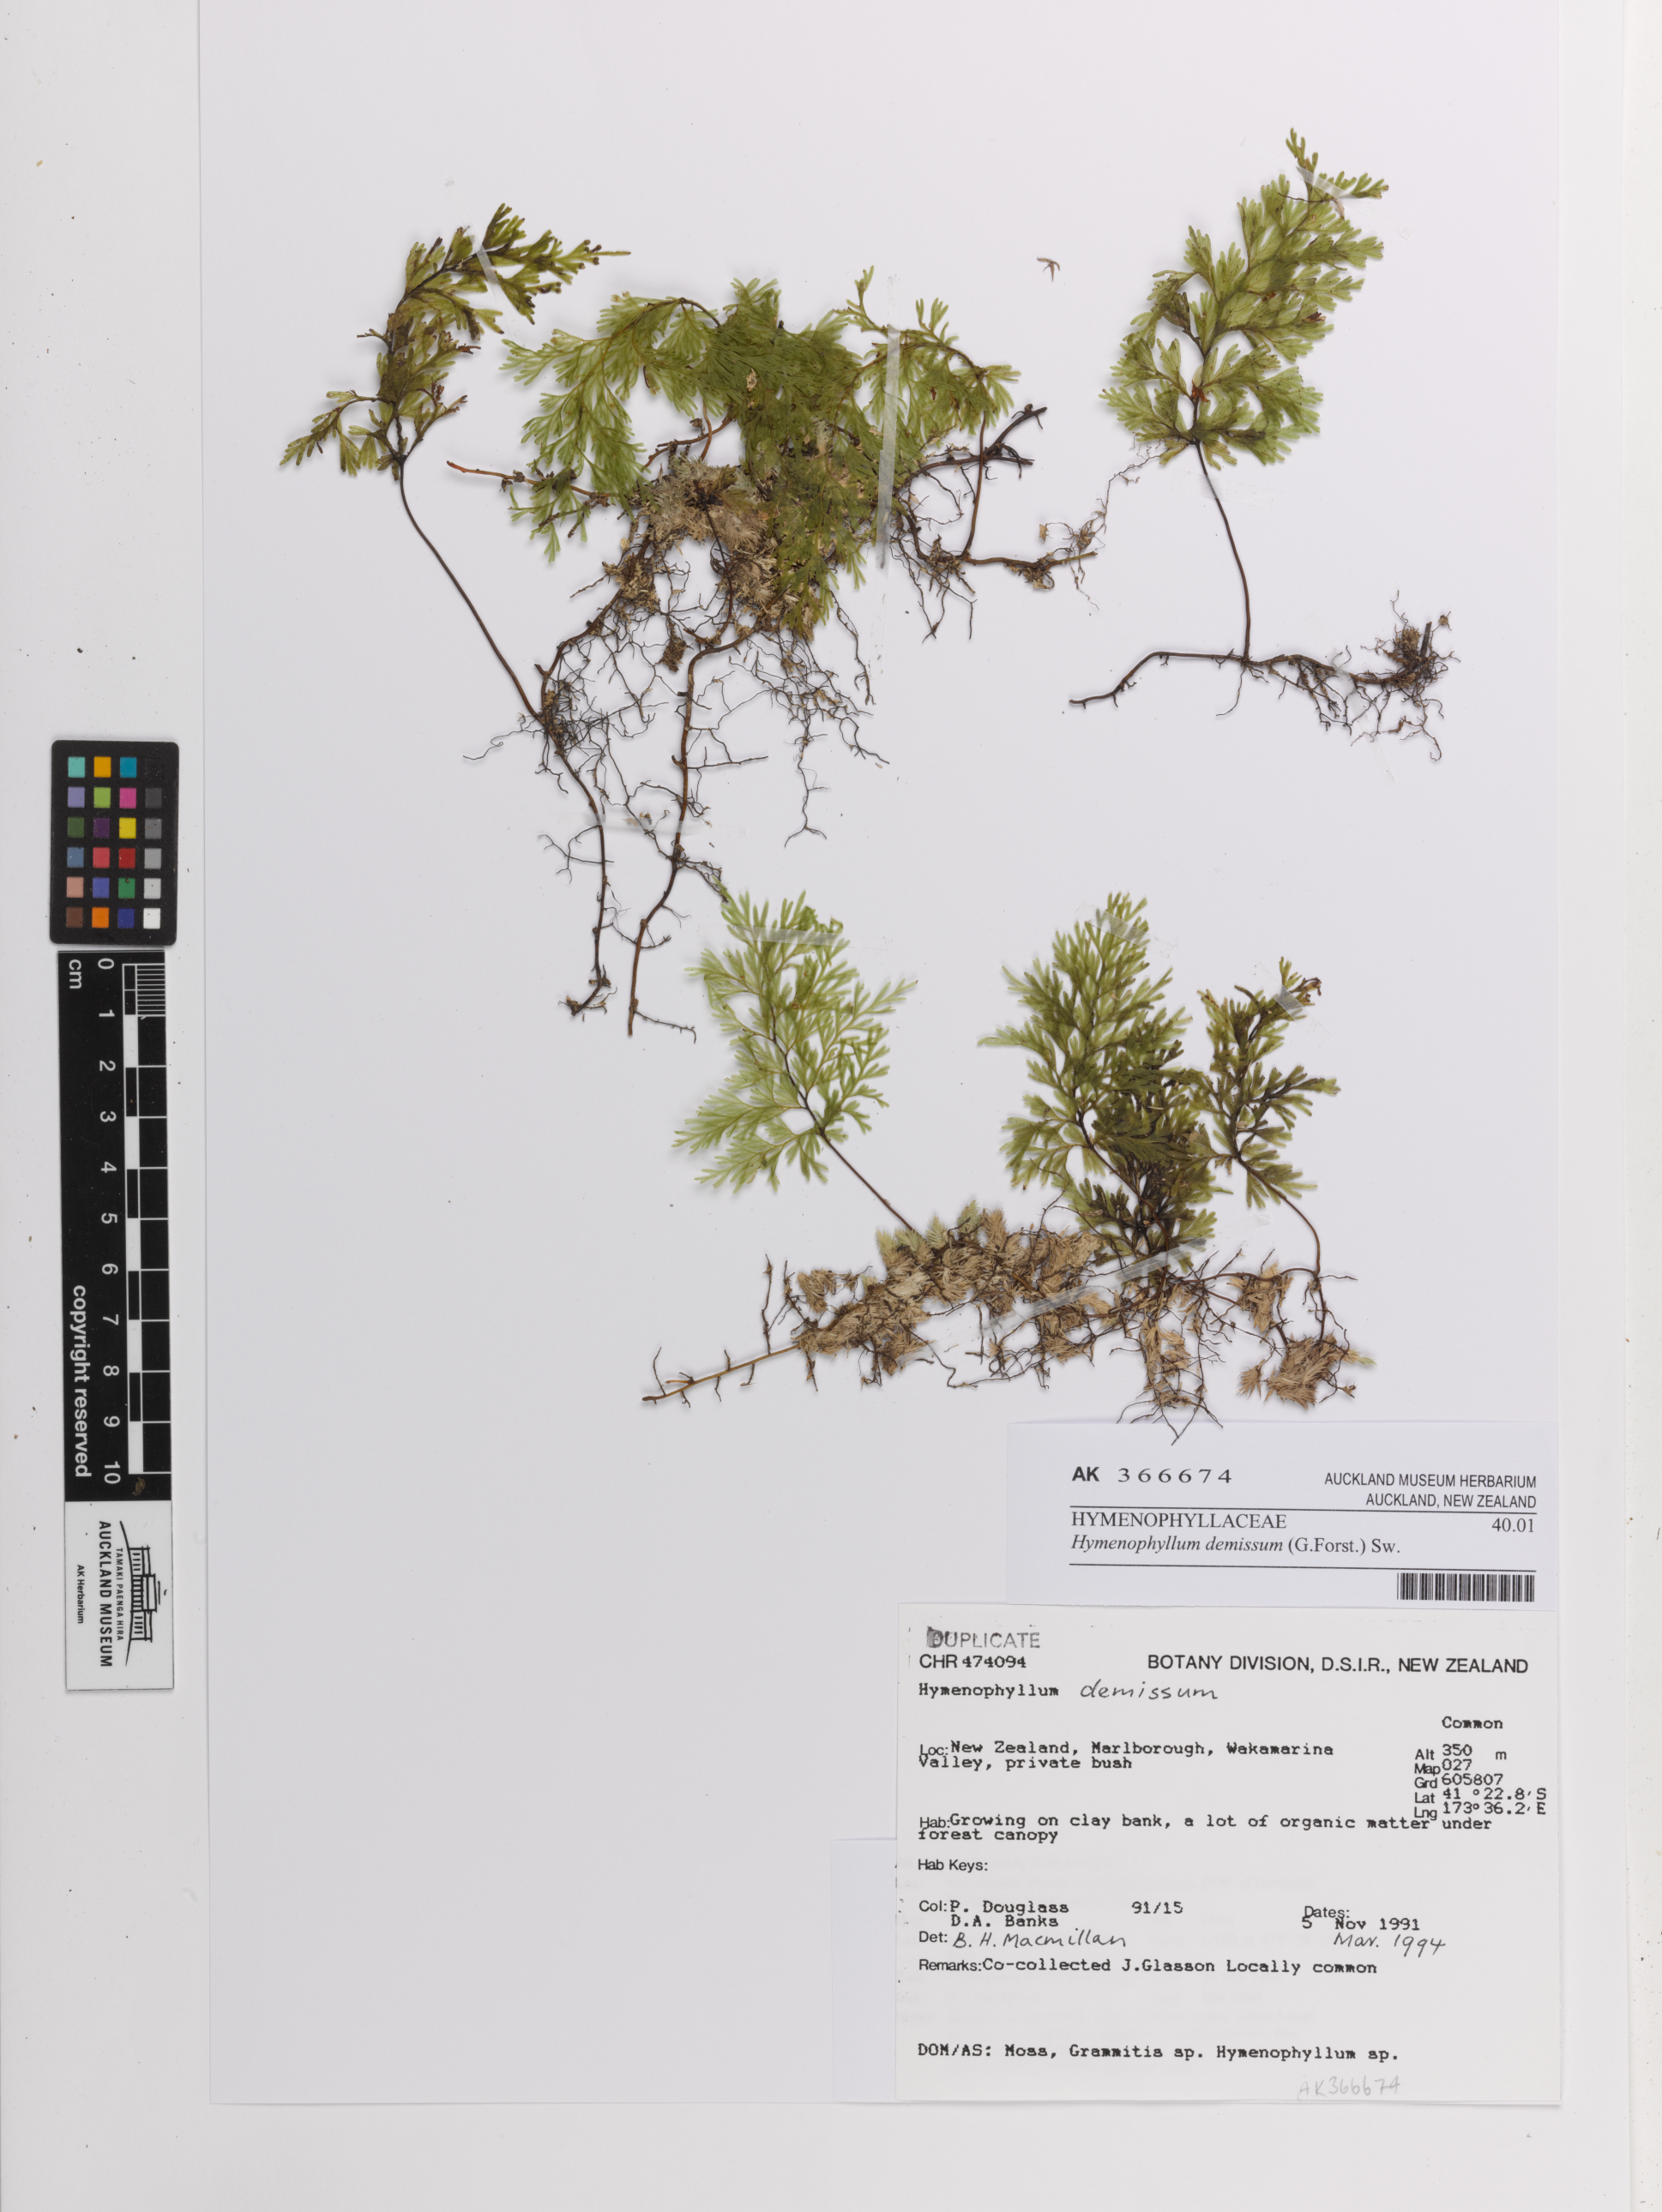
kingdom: Plantae
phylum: Tracheophyta
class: Polypodiopsida
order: Hymenophyllales
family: Hymenophyllaceae
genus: Hymenophyllum
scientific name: Hymenophyllum demissum
